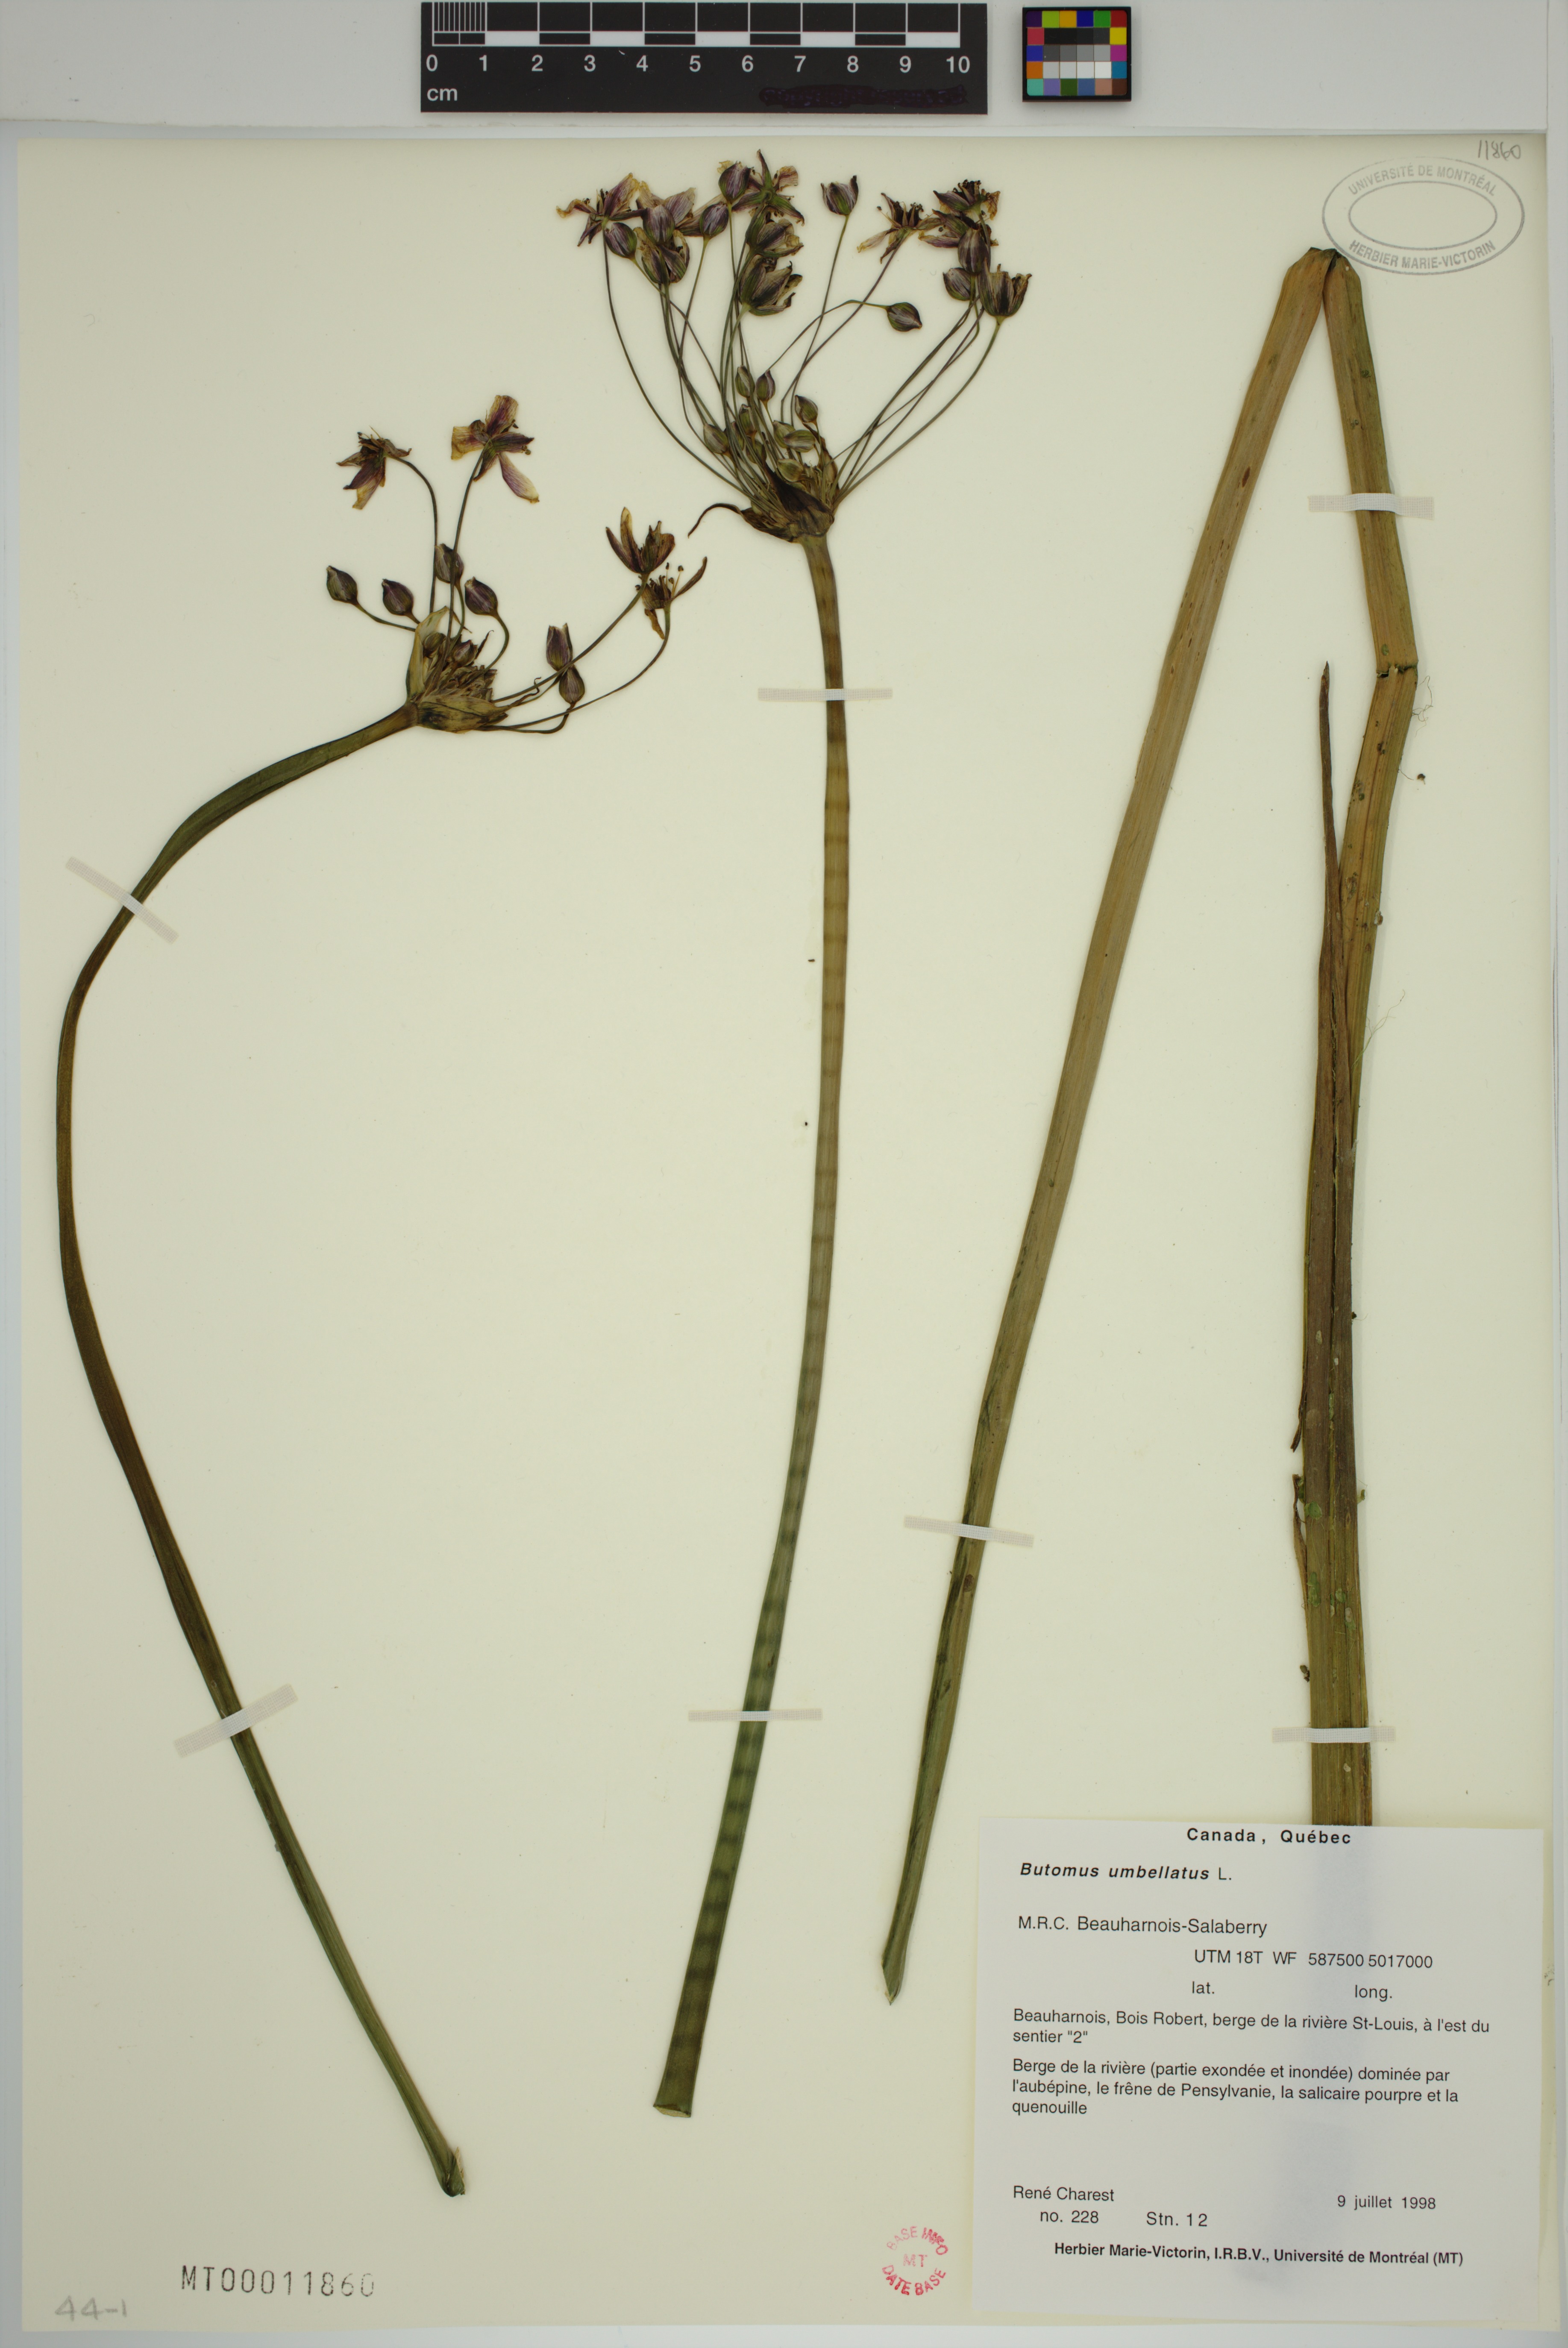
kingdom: Plantae
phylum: Tracheophyta
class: Liliopsida
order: Alismatales
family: Butomaceae
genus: Butomus
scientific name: Butomus umbellatus
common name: Flowering-rush
